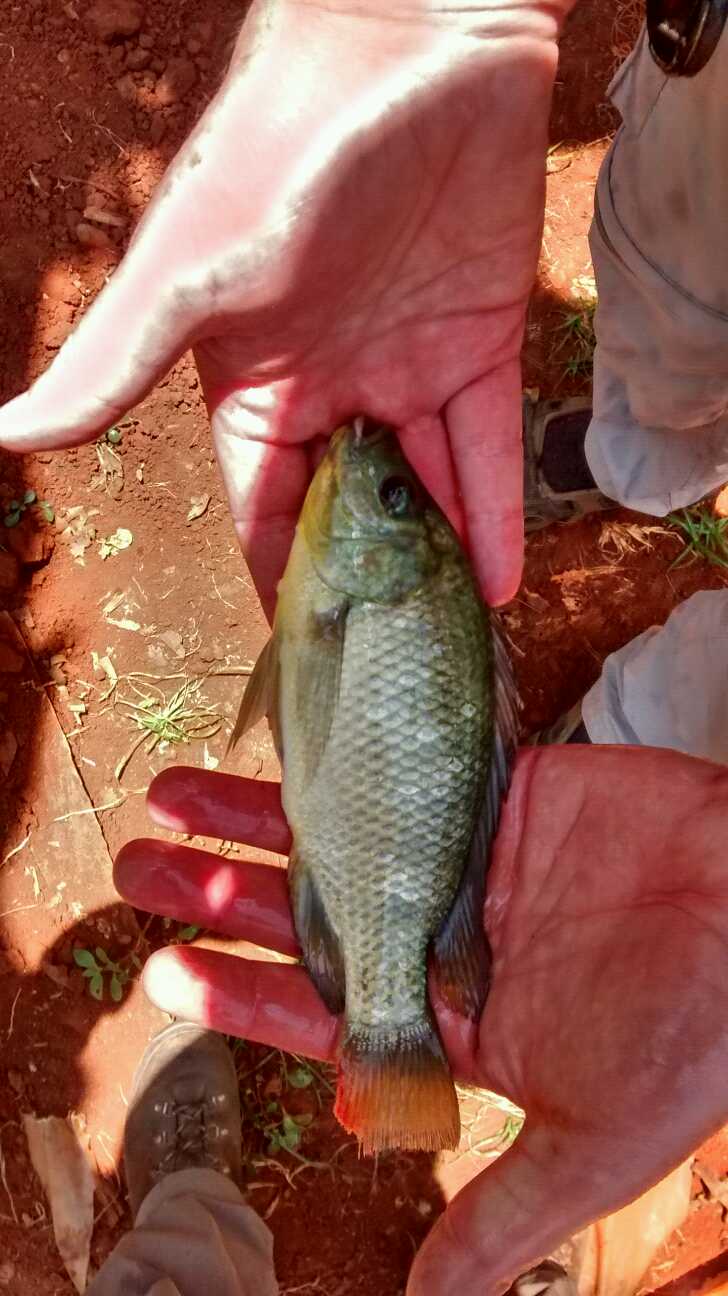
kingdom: Animalia
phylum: Chordata
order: Perciformes
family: Cichlidae
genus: Oreochromis
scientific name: Oreochromis mossambicus
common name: Mozambique tilapia
